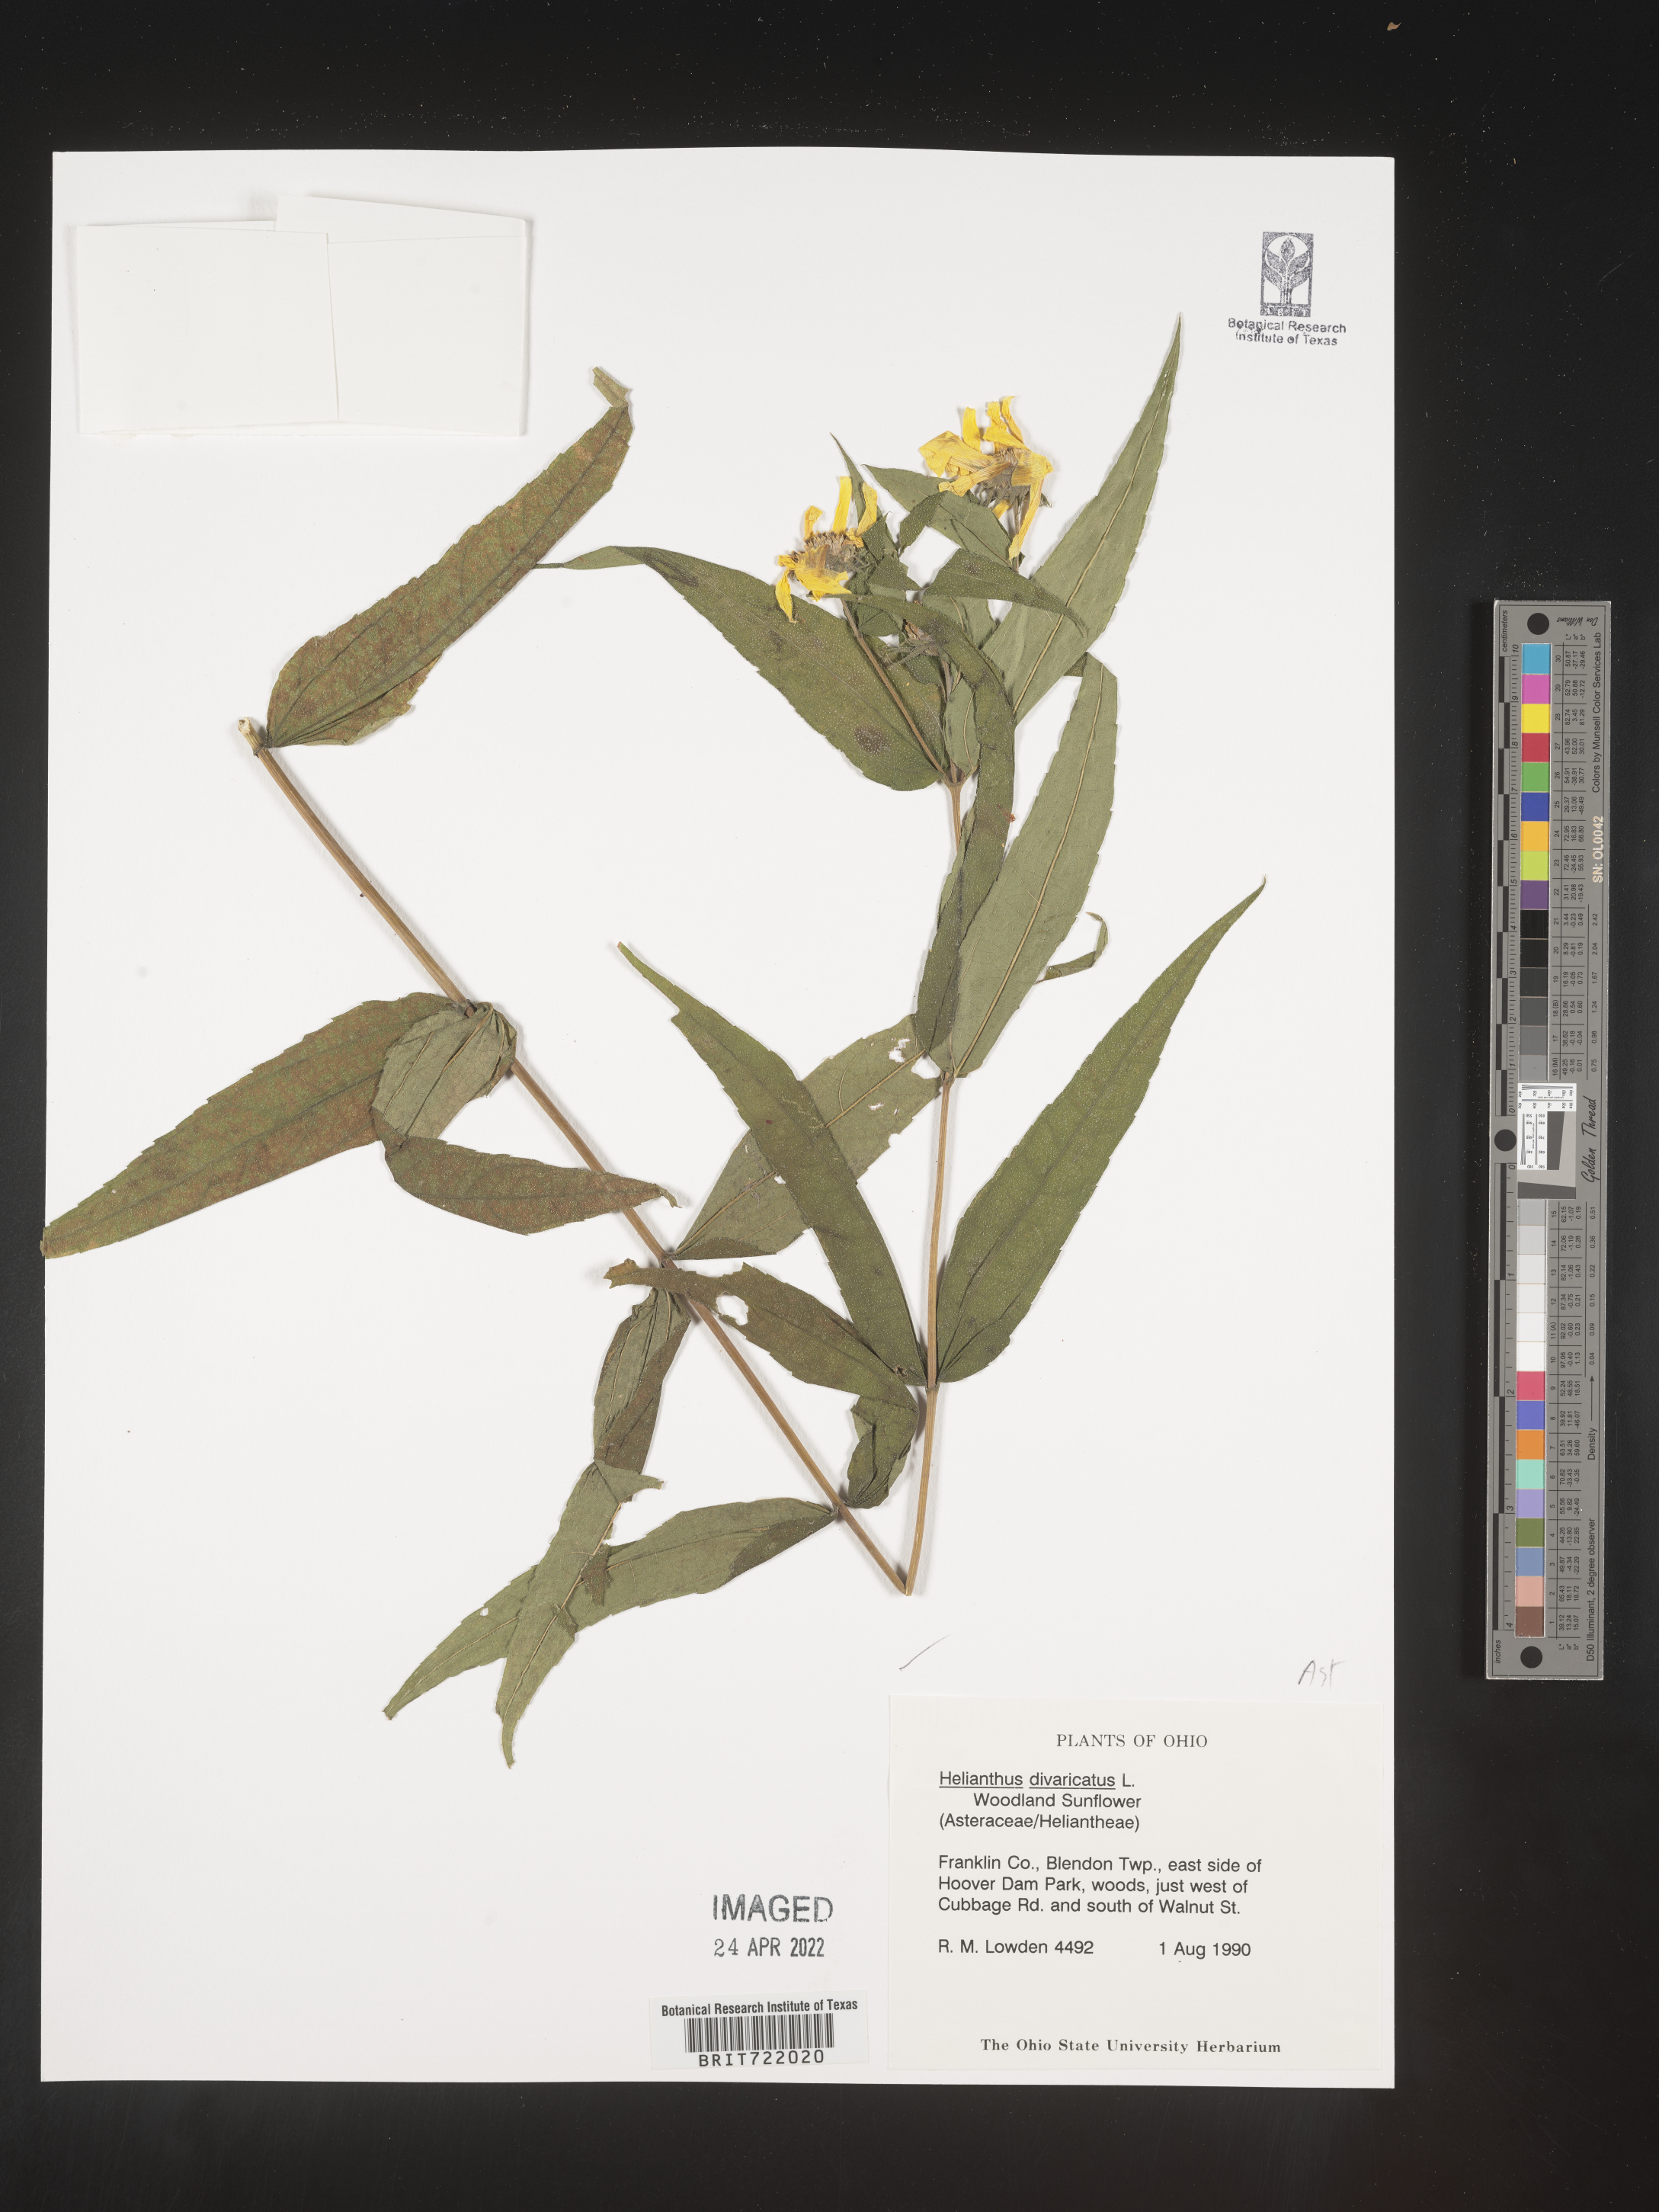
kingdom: Plantae
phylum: Tracheophyta
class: Magnoliopsida
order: Asterales
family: Asteraceae
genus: Helianthus
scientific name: Helianthus divaricatus
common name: Divergent sunflower
